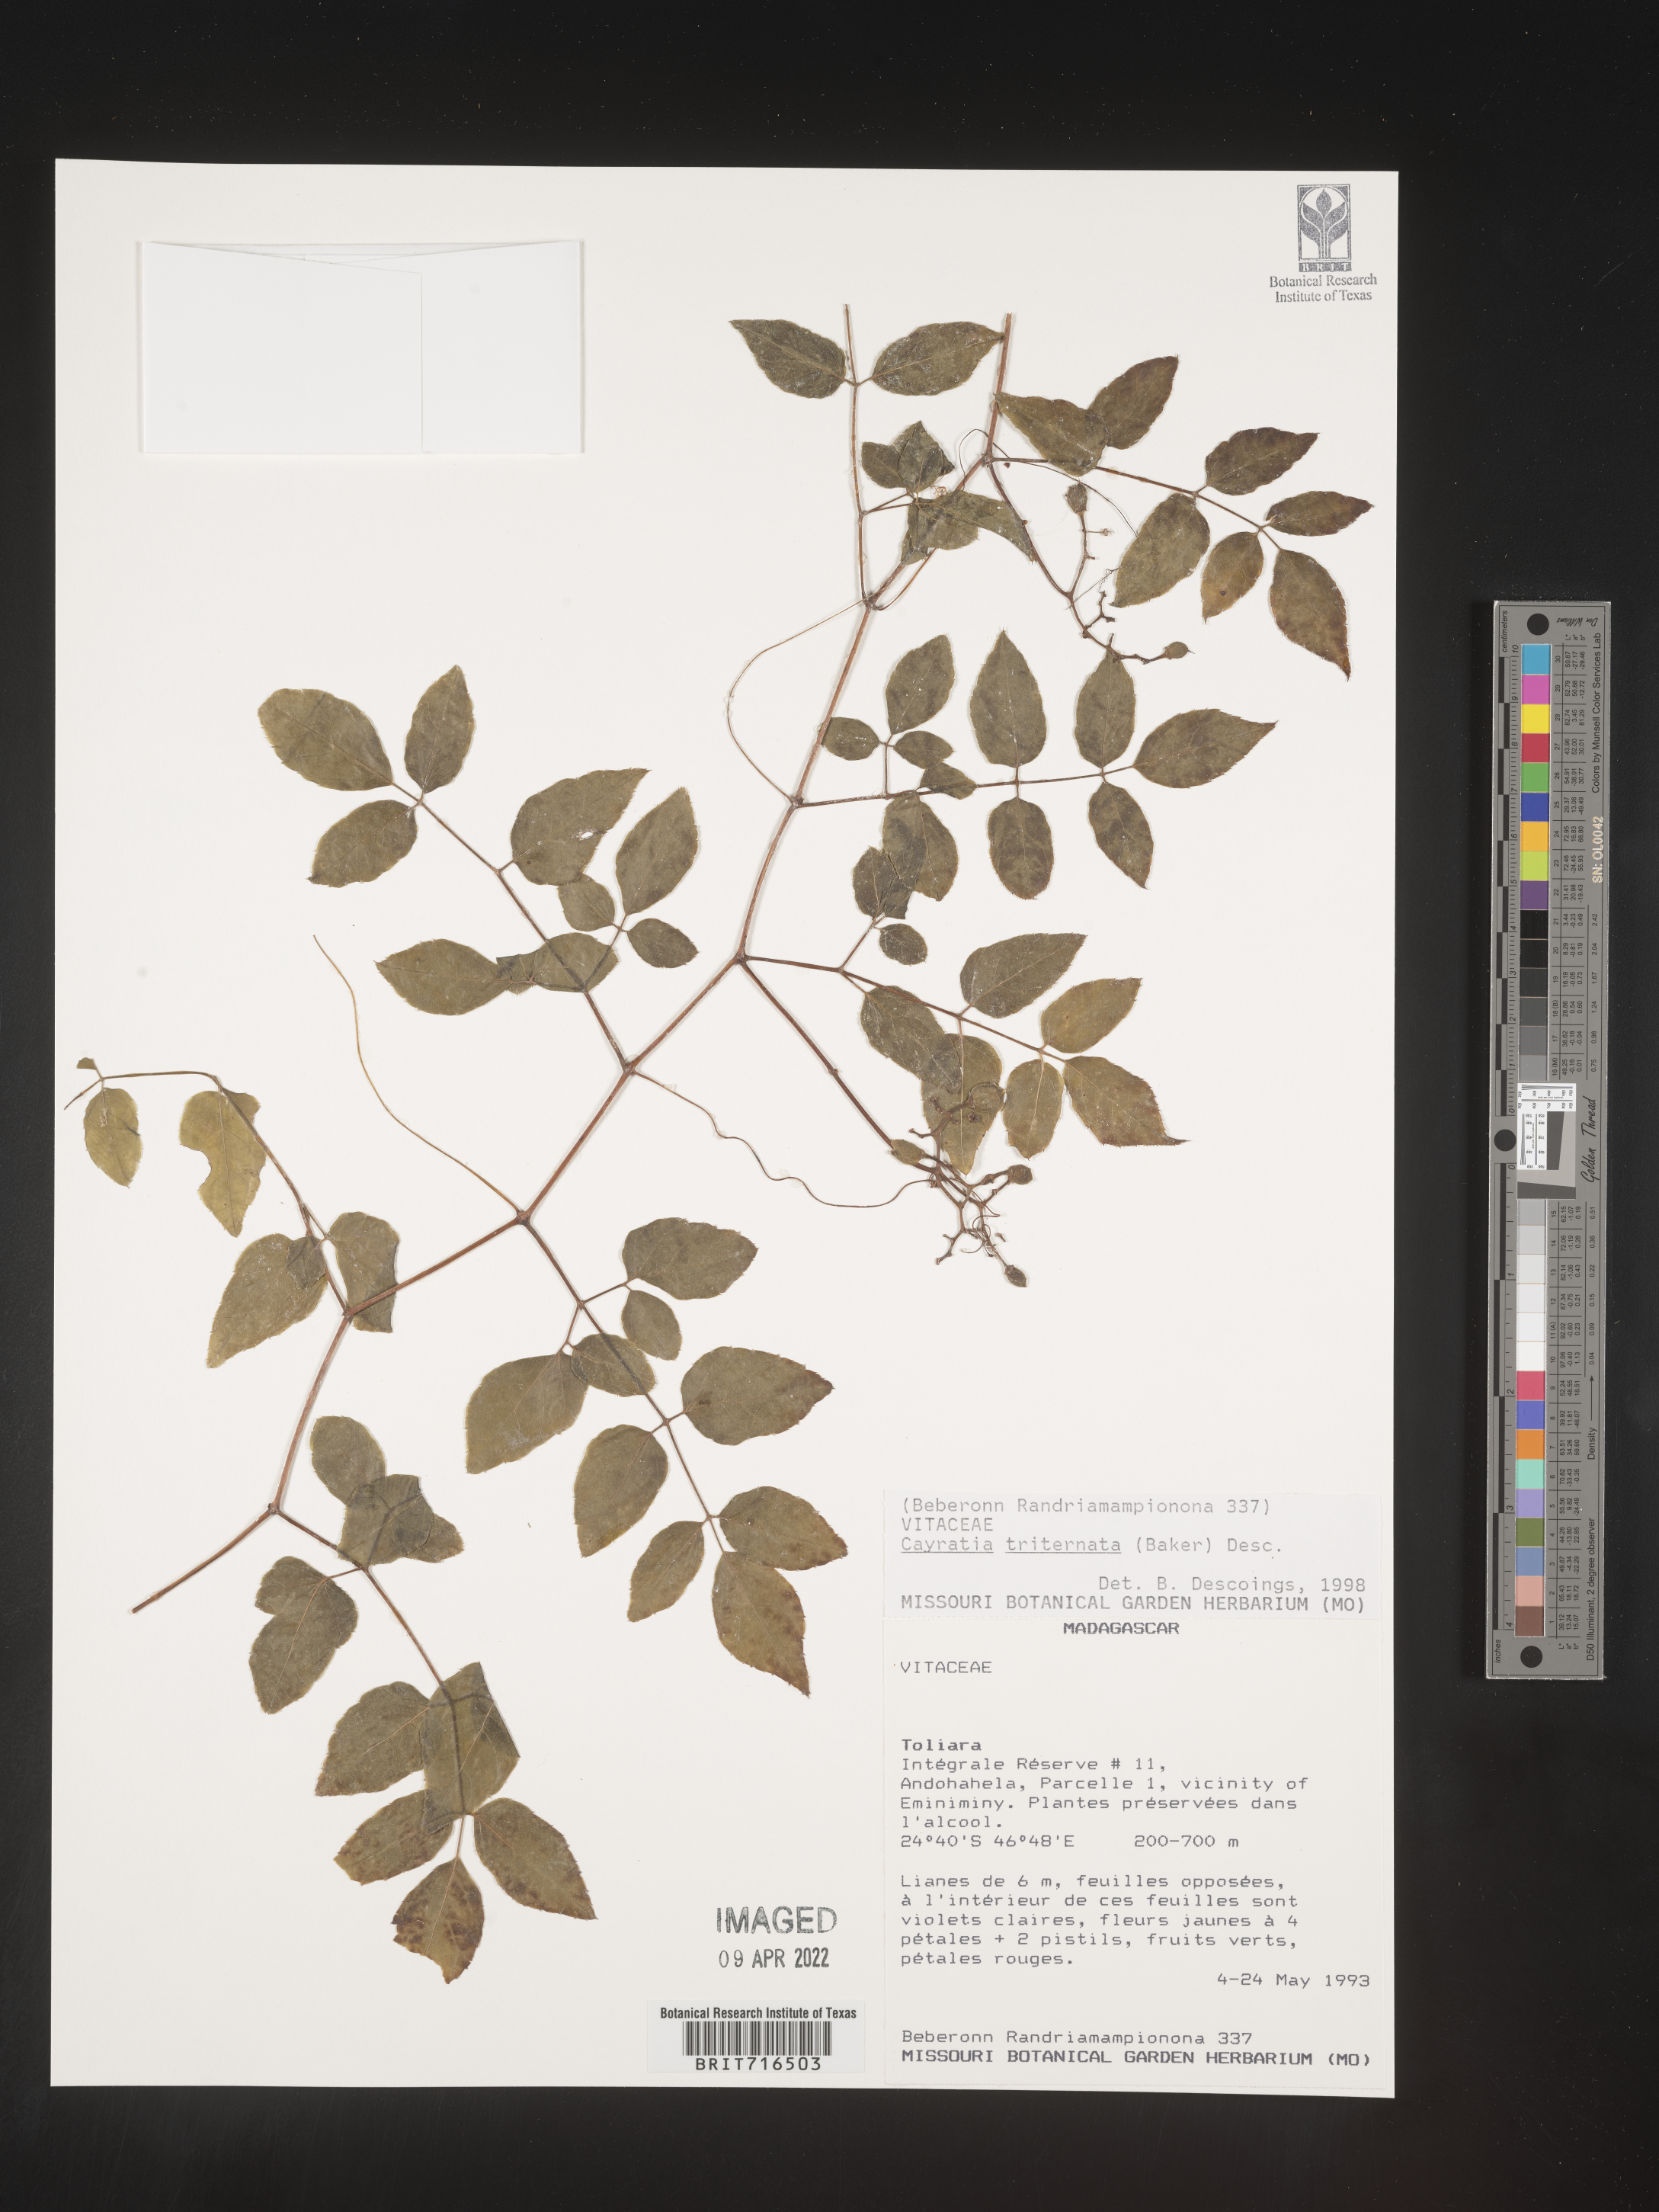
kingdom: Plantae
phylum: Tracheophyta
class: Magnoliopsida
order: Vitales
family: Vitaceae
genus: Cayratia
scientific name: Cayratia
